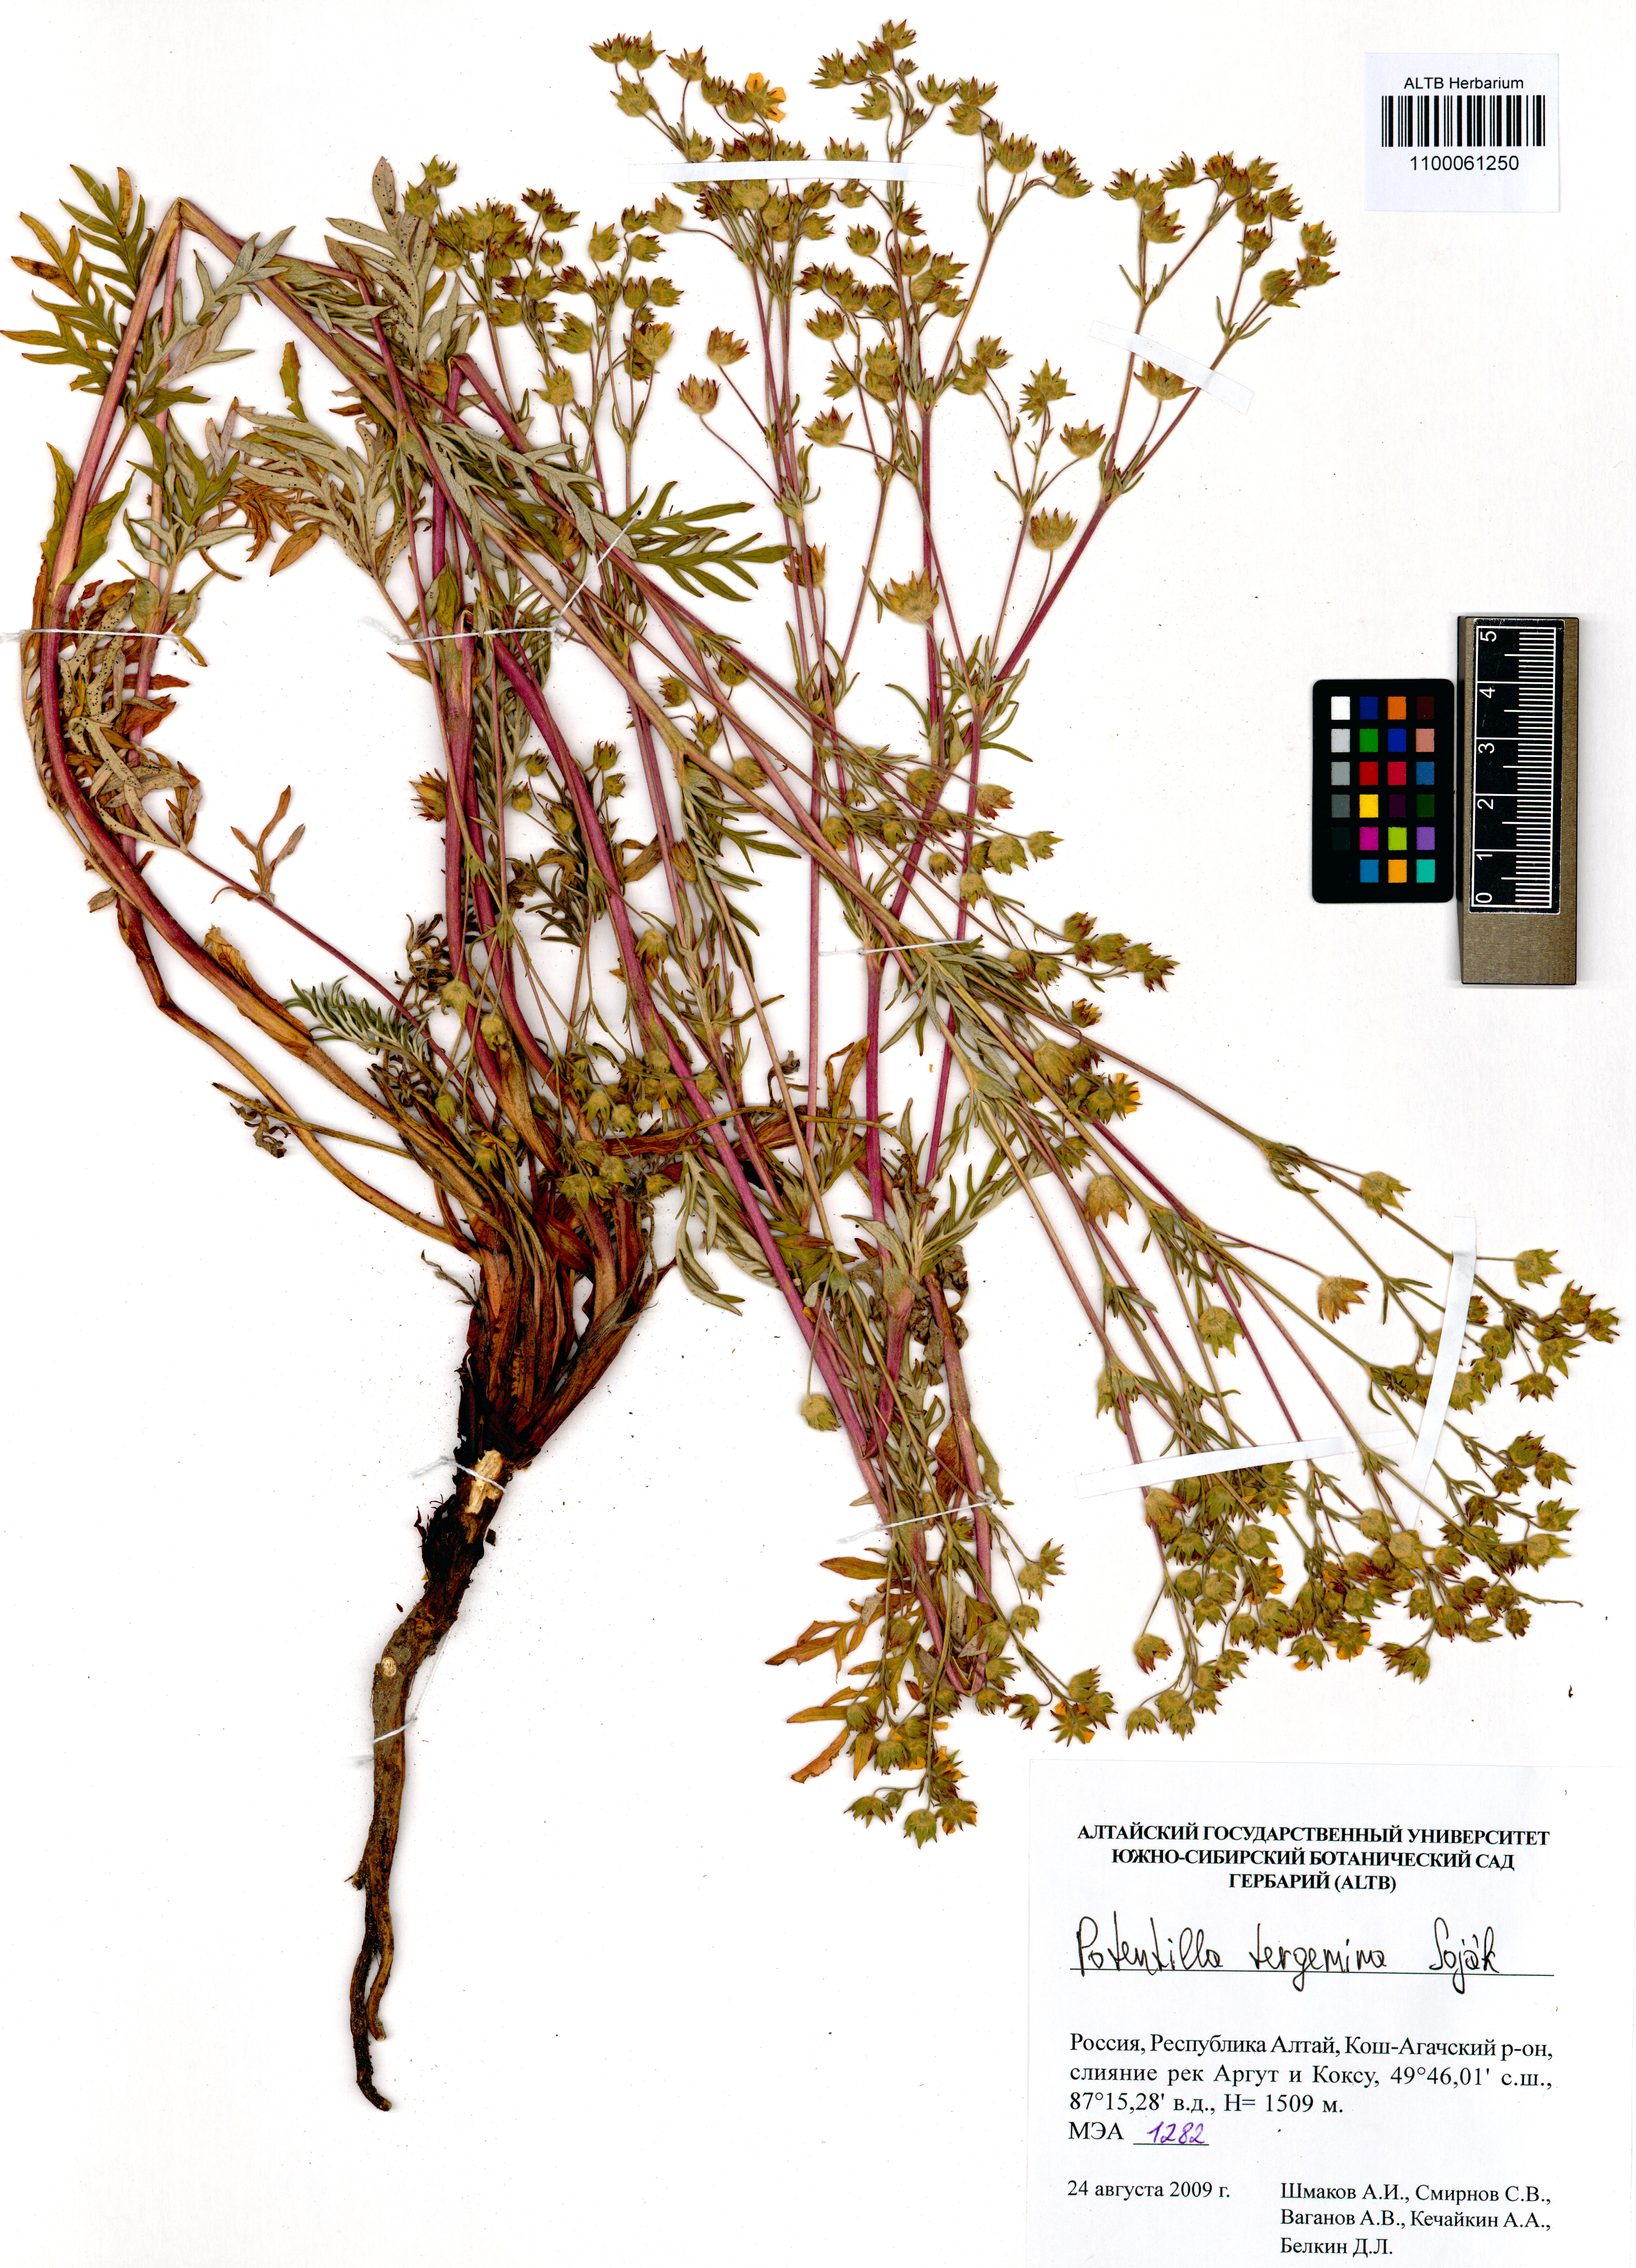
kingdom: Plantae
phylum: Tracheophyta
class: Magnoliopsida
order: Rosales
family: Rosaceae
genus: Potentilla
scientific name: Potentilla tergemina
